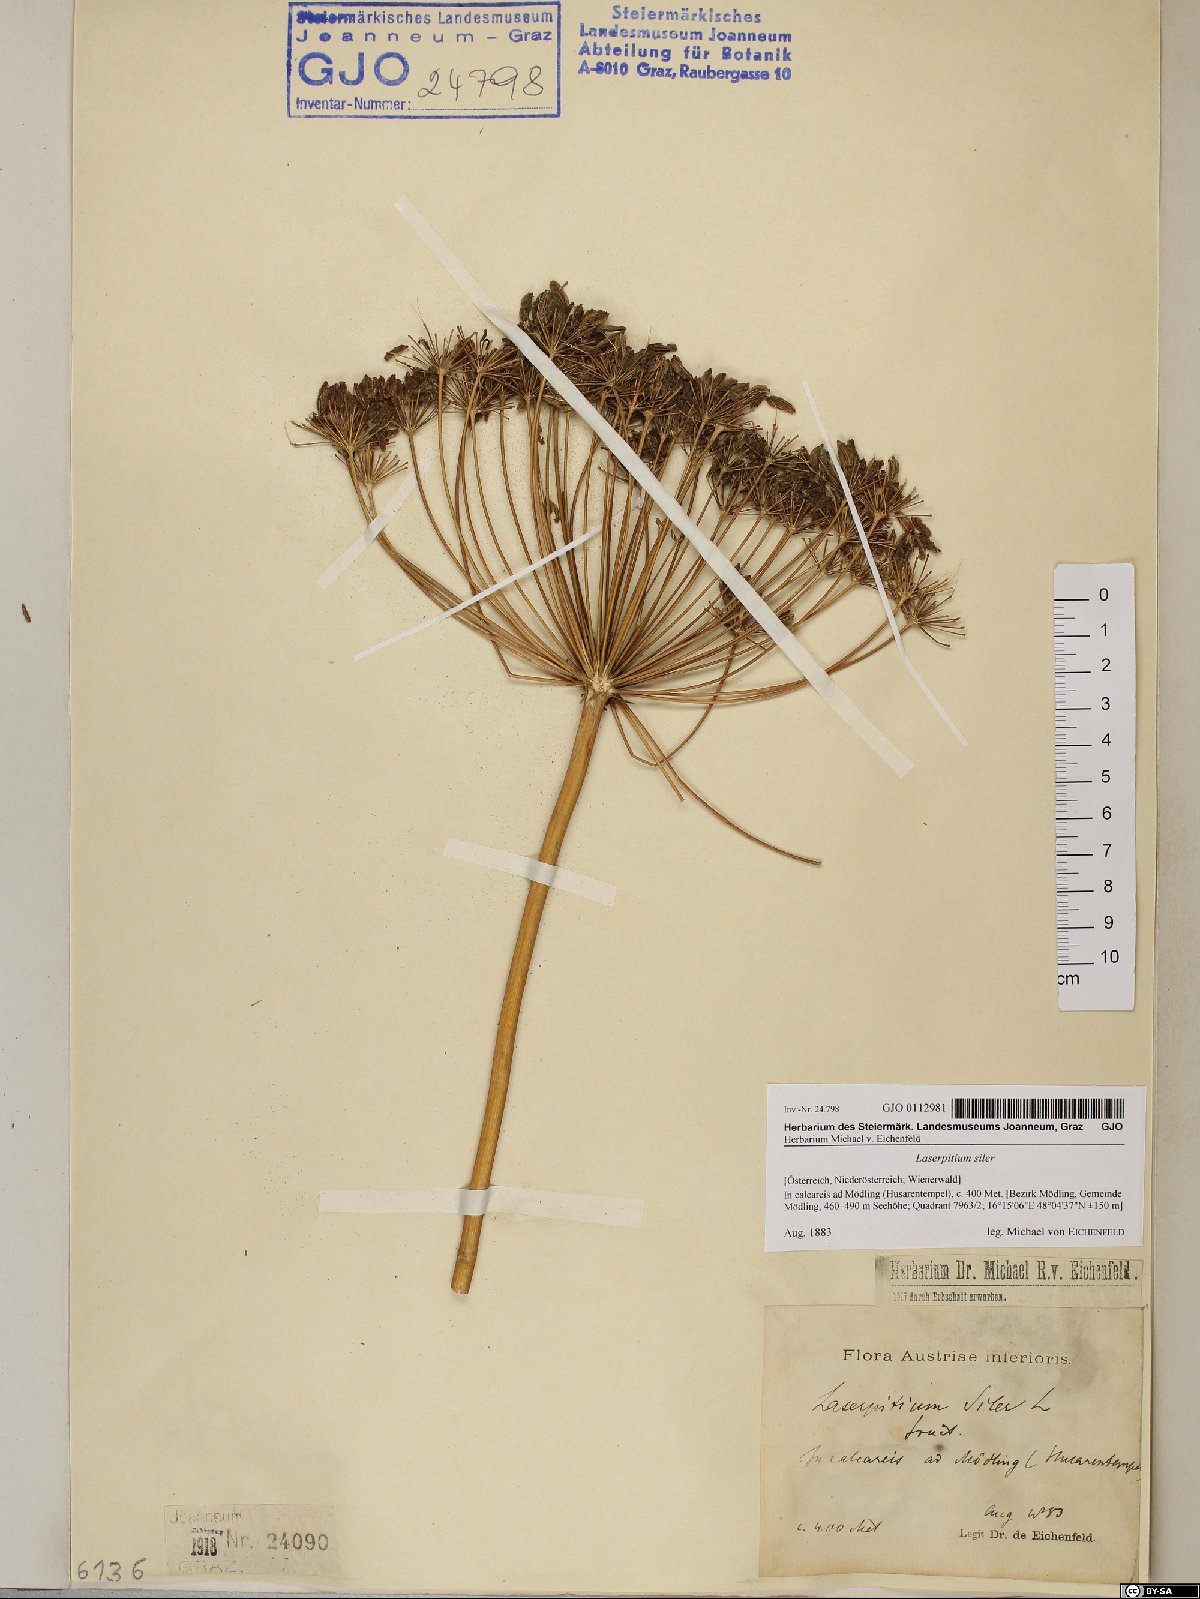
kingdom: Plantae
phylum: Tracheophyta
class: Magnoliopsida
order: Apiales
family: Apiaceae
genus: Siler
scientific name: Siler montanum
